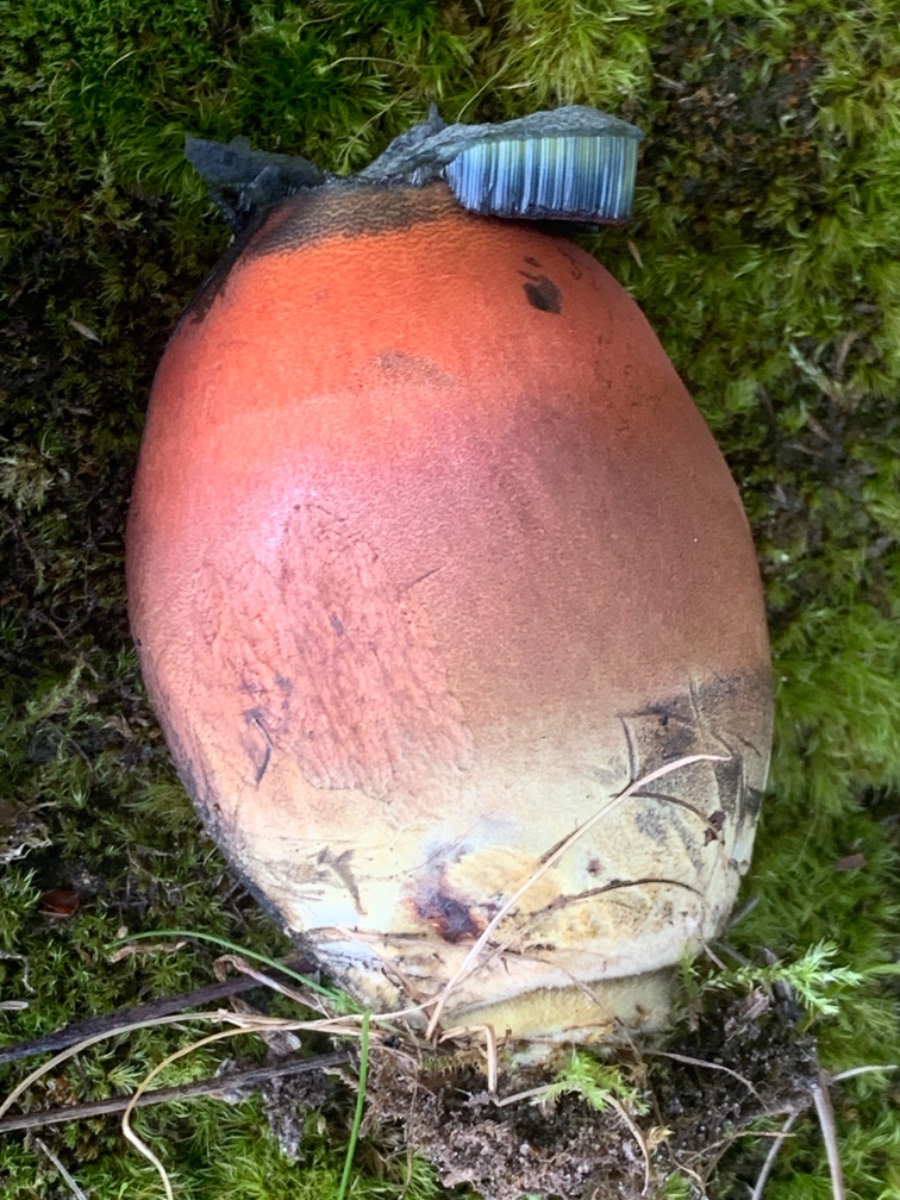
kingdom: Fungi
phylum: Basidiomycota
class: Agaricomycetes
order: Boletales
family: Boletaceae
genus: Neoboletus
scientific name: Neoboletus erythropus
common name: punktstokket indigorørhat
